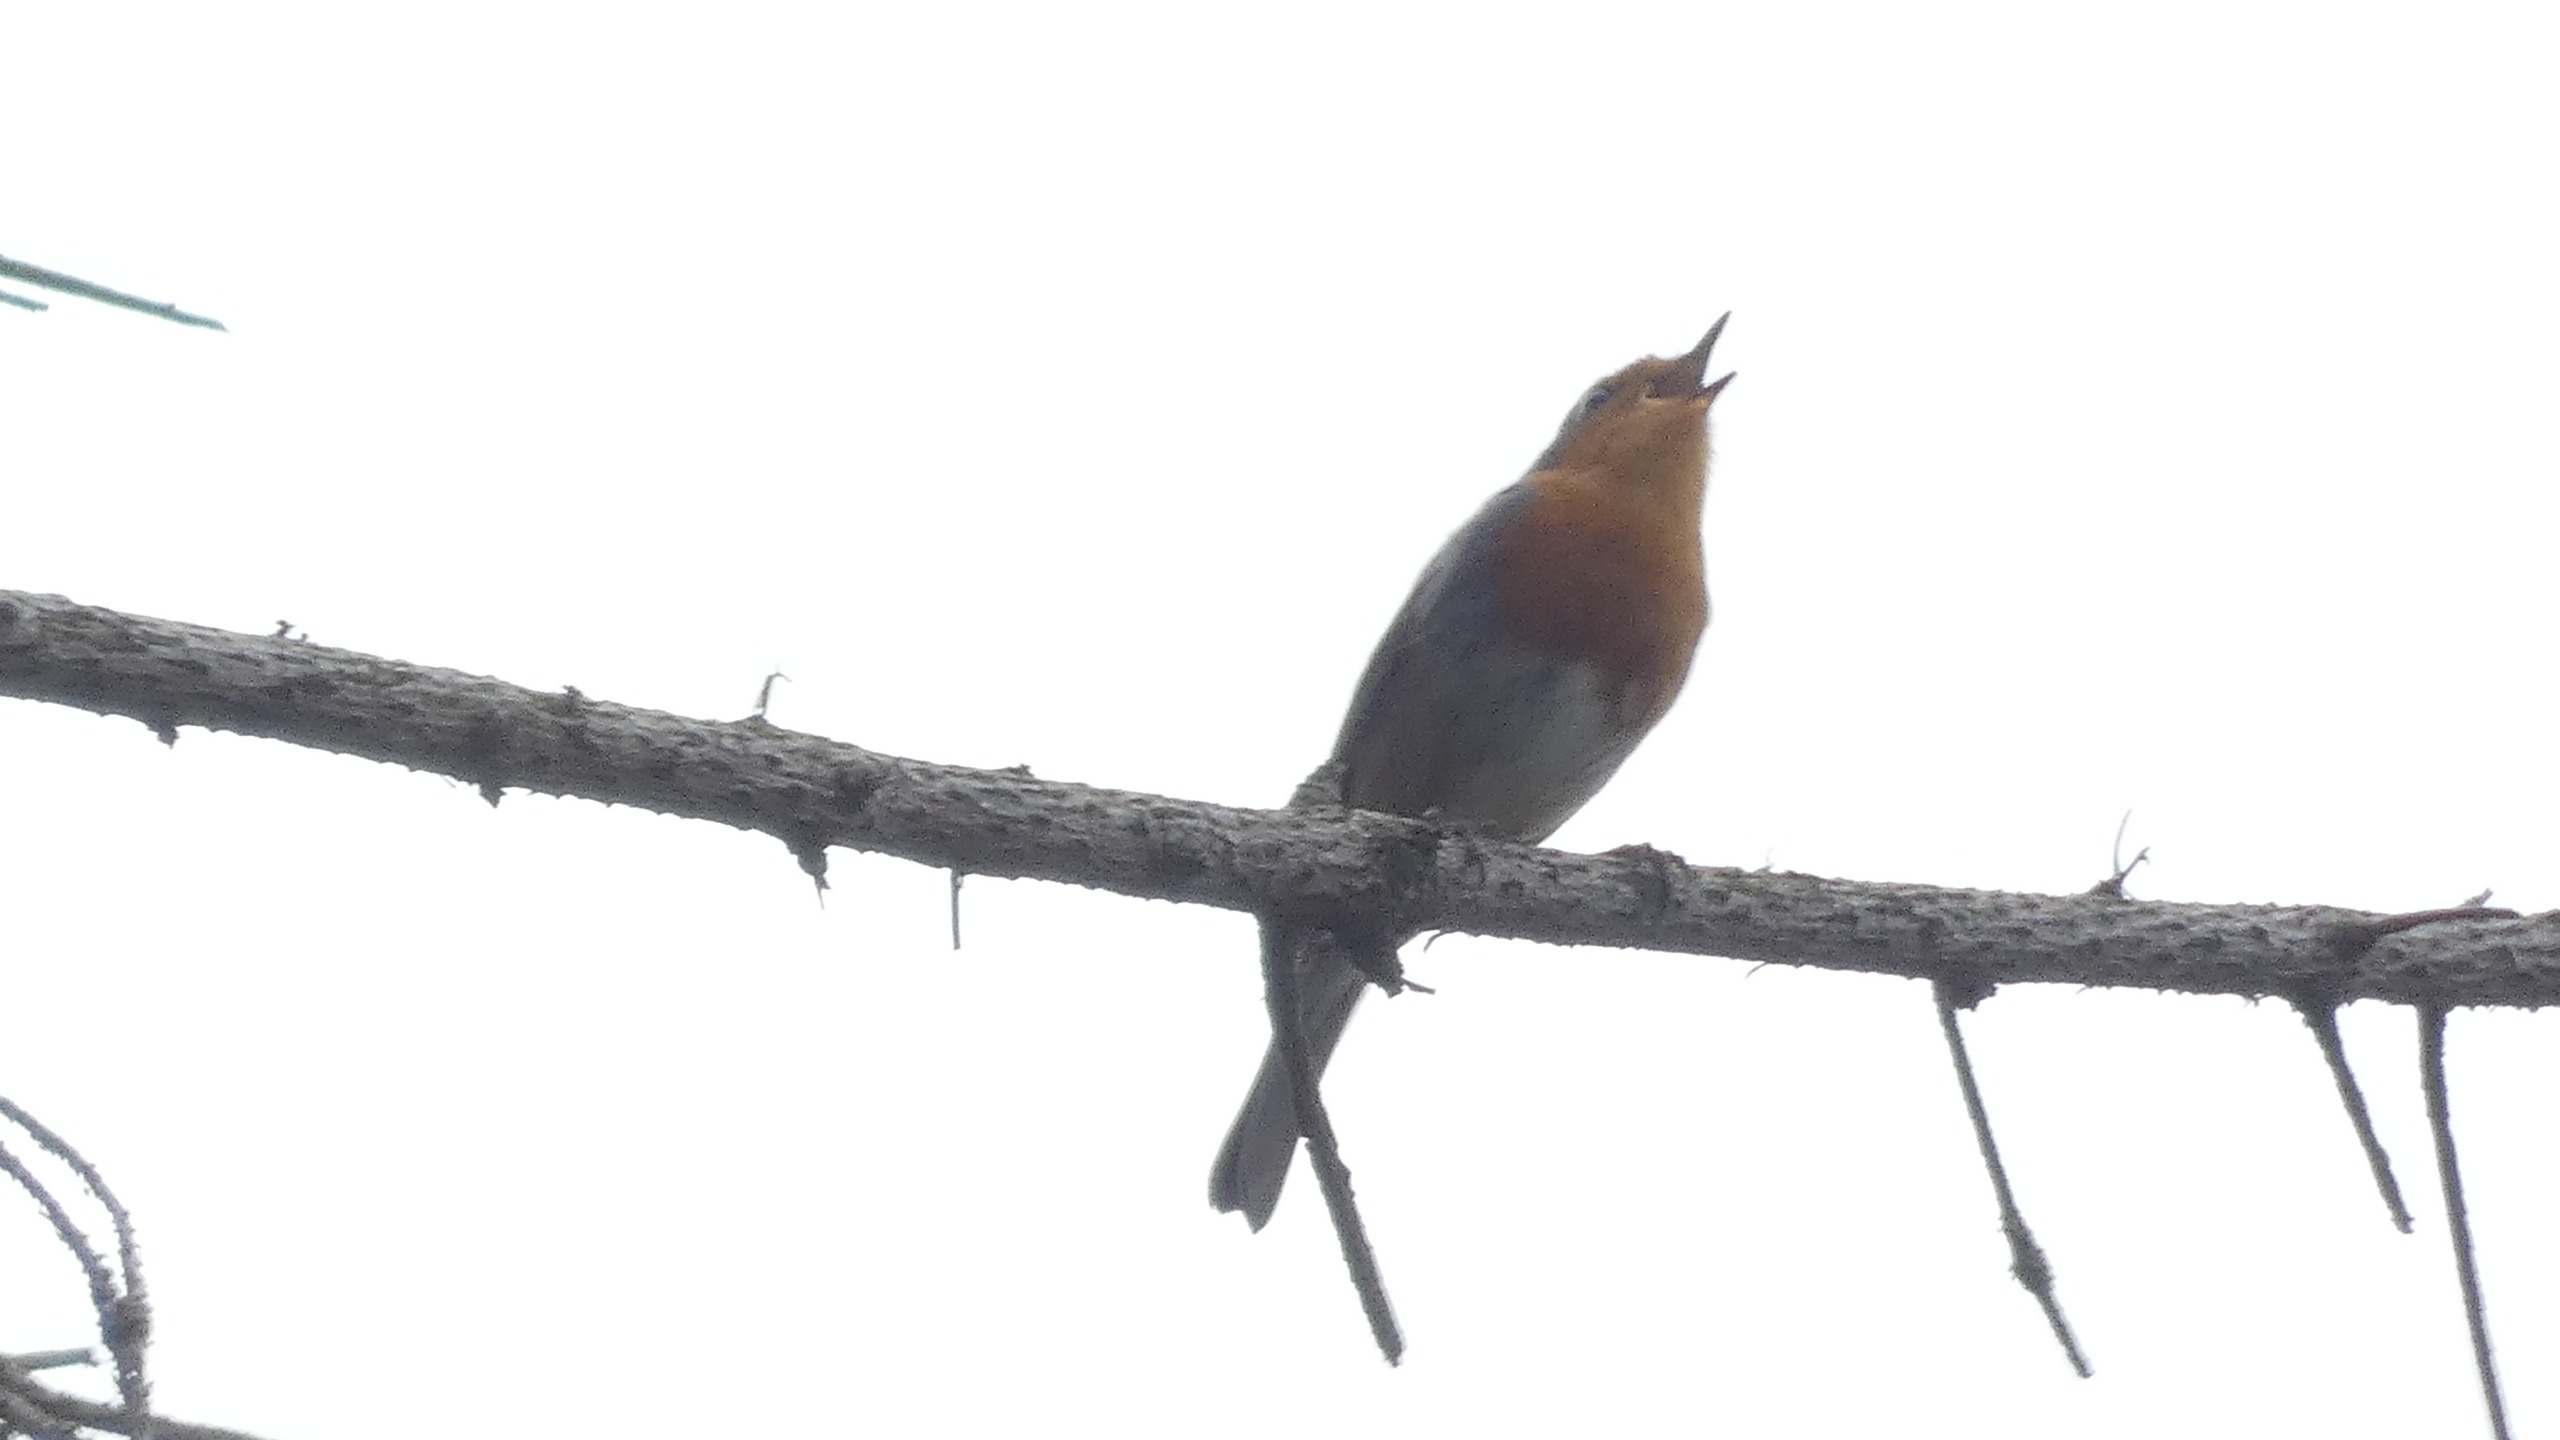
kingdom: Animalia
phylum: Chordata
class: Aves
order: Passeriformes
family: Muscicapidae
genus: Erithacus
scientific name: Erithacus rubecula
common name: Rødhals/rødkælk
